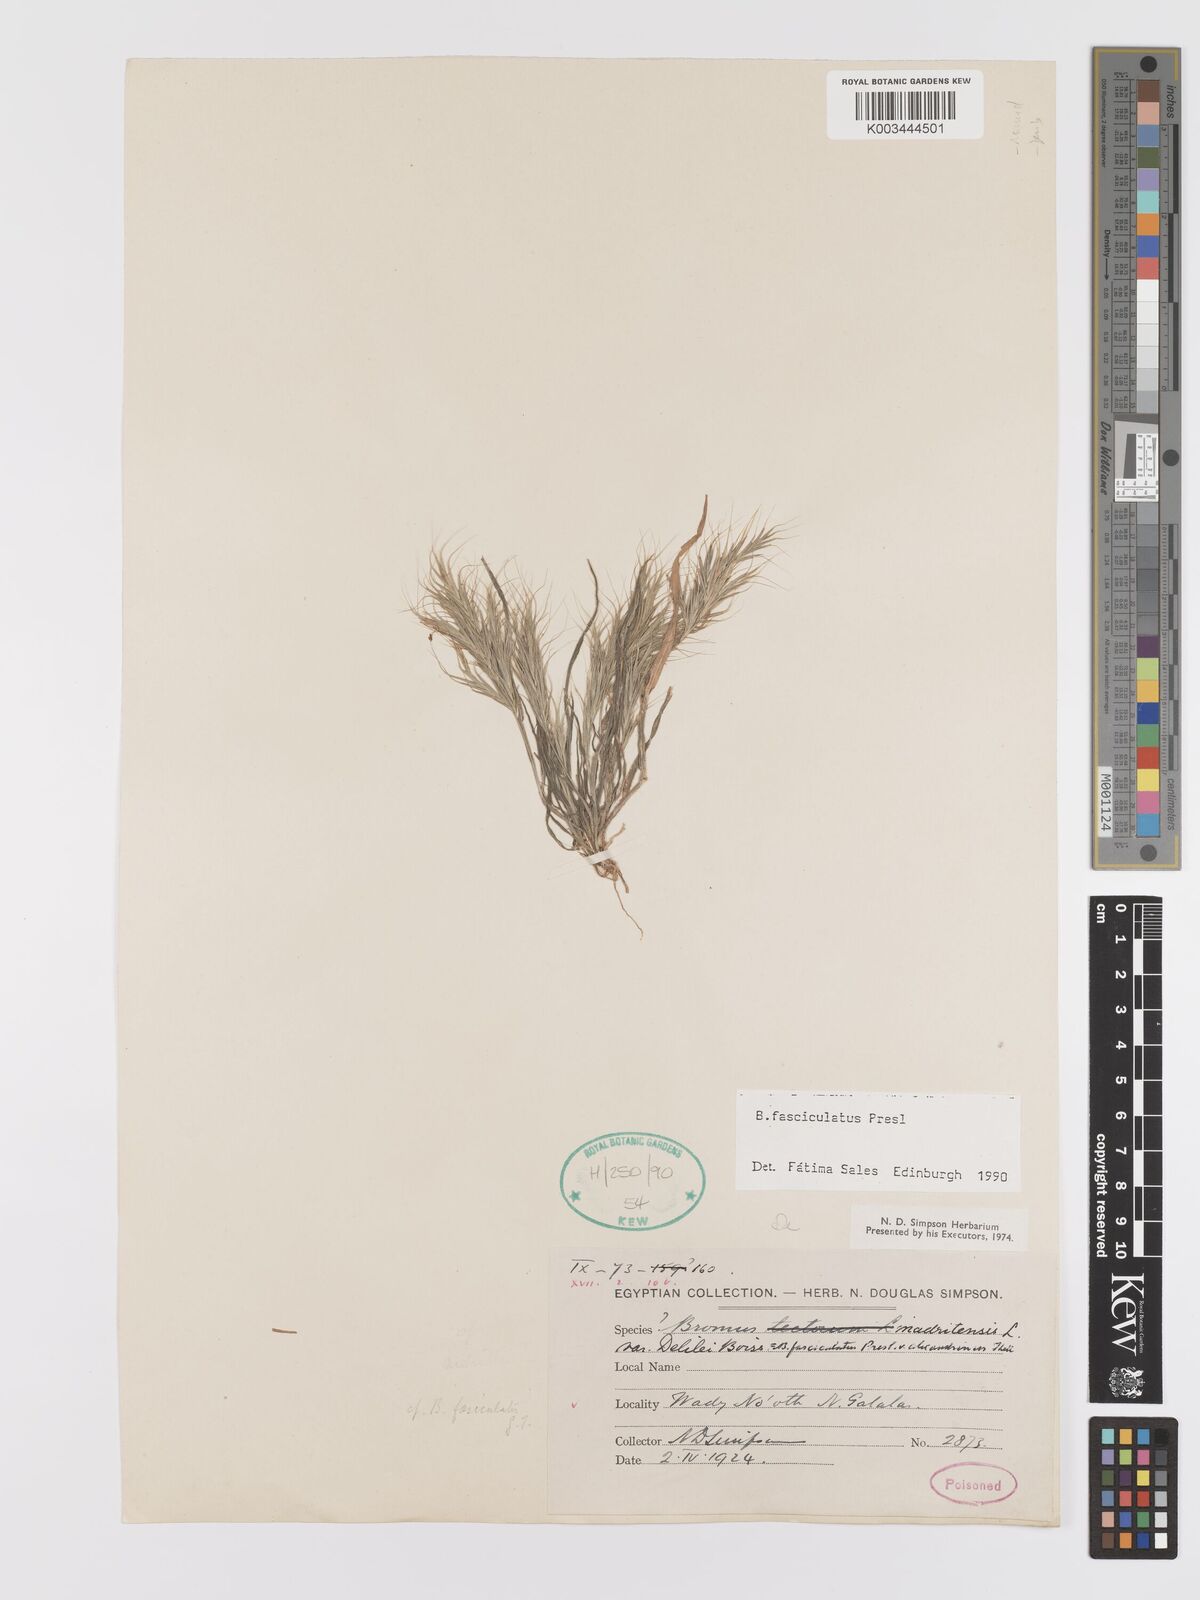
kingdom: Plantae
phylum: Tracheophyta
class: Liliopsida
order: Poales
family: Poaceae
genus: Bromus
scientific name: Bromus fasciculatus
